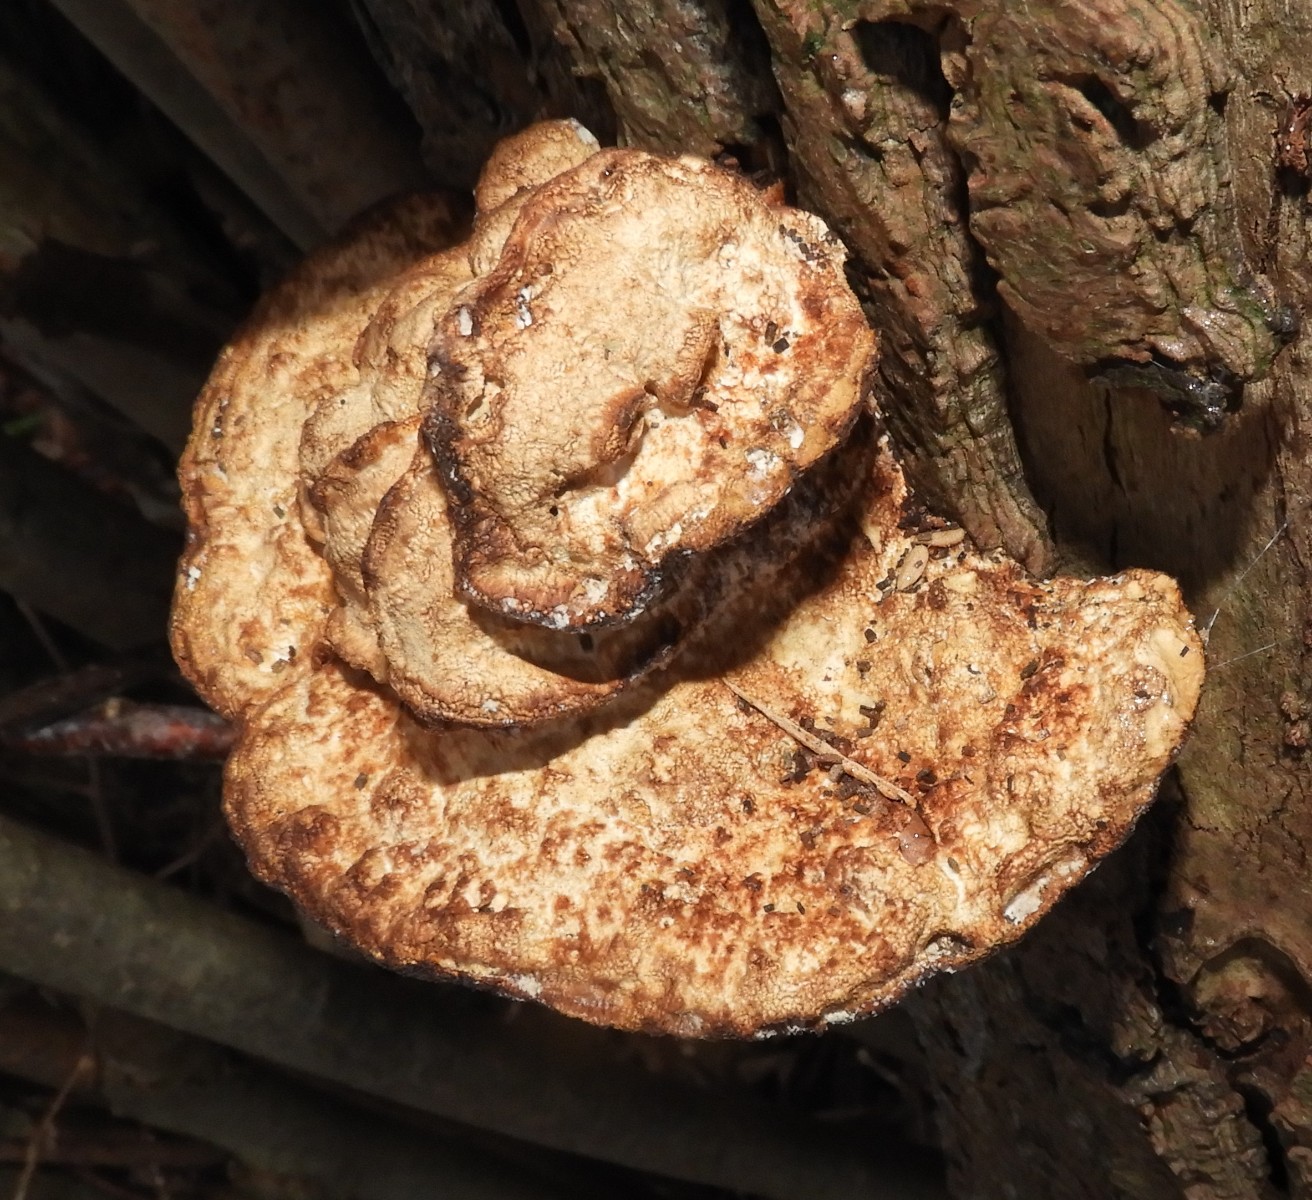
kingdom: Fungi
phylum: Basidiomycota
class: Agaricomycetes
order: Polyporales
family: Polyporaceae
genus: Daedaleopsis
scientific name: Daedaleopsis confragosa
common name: rødmende læderporesvamp
